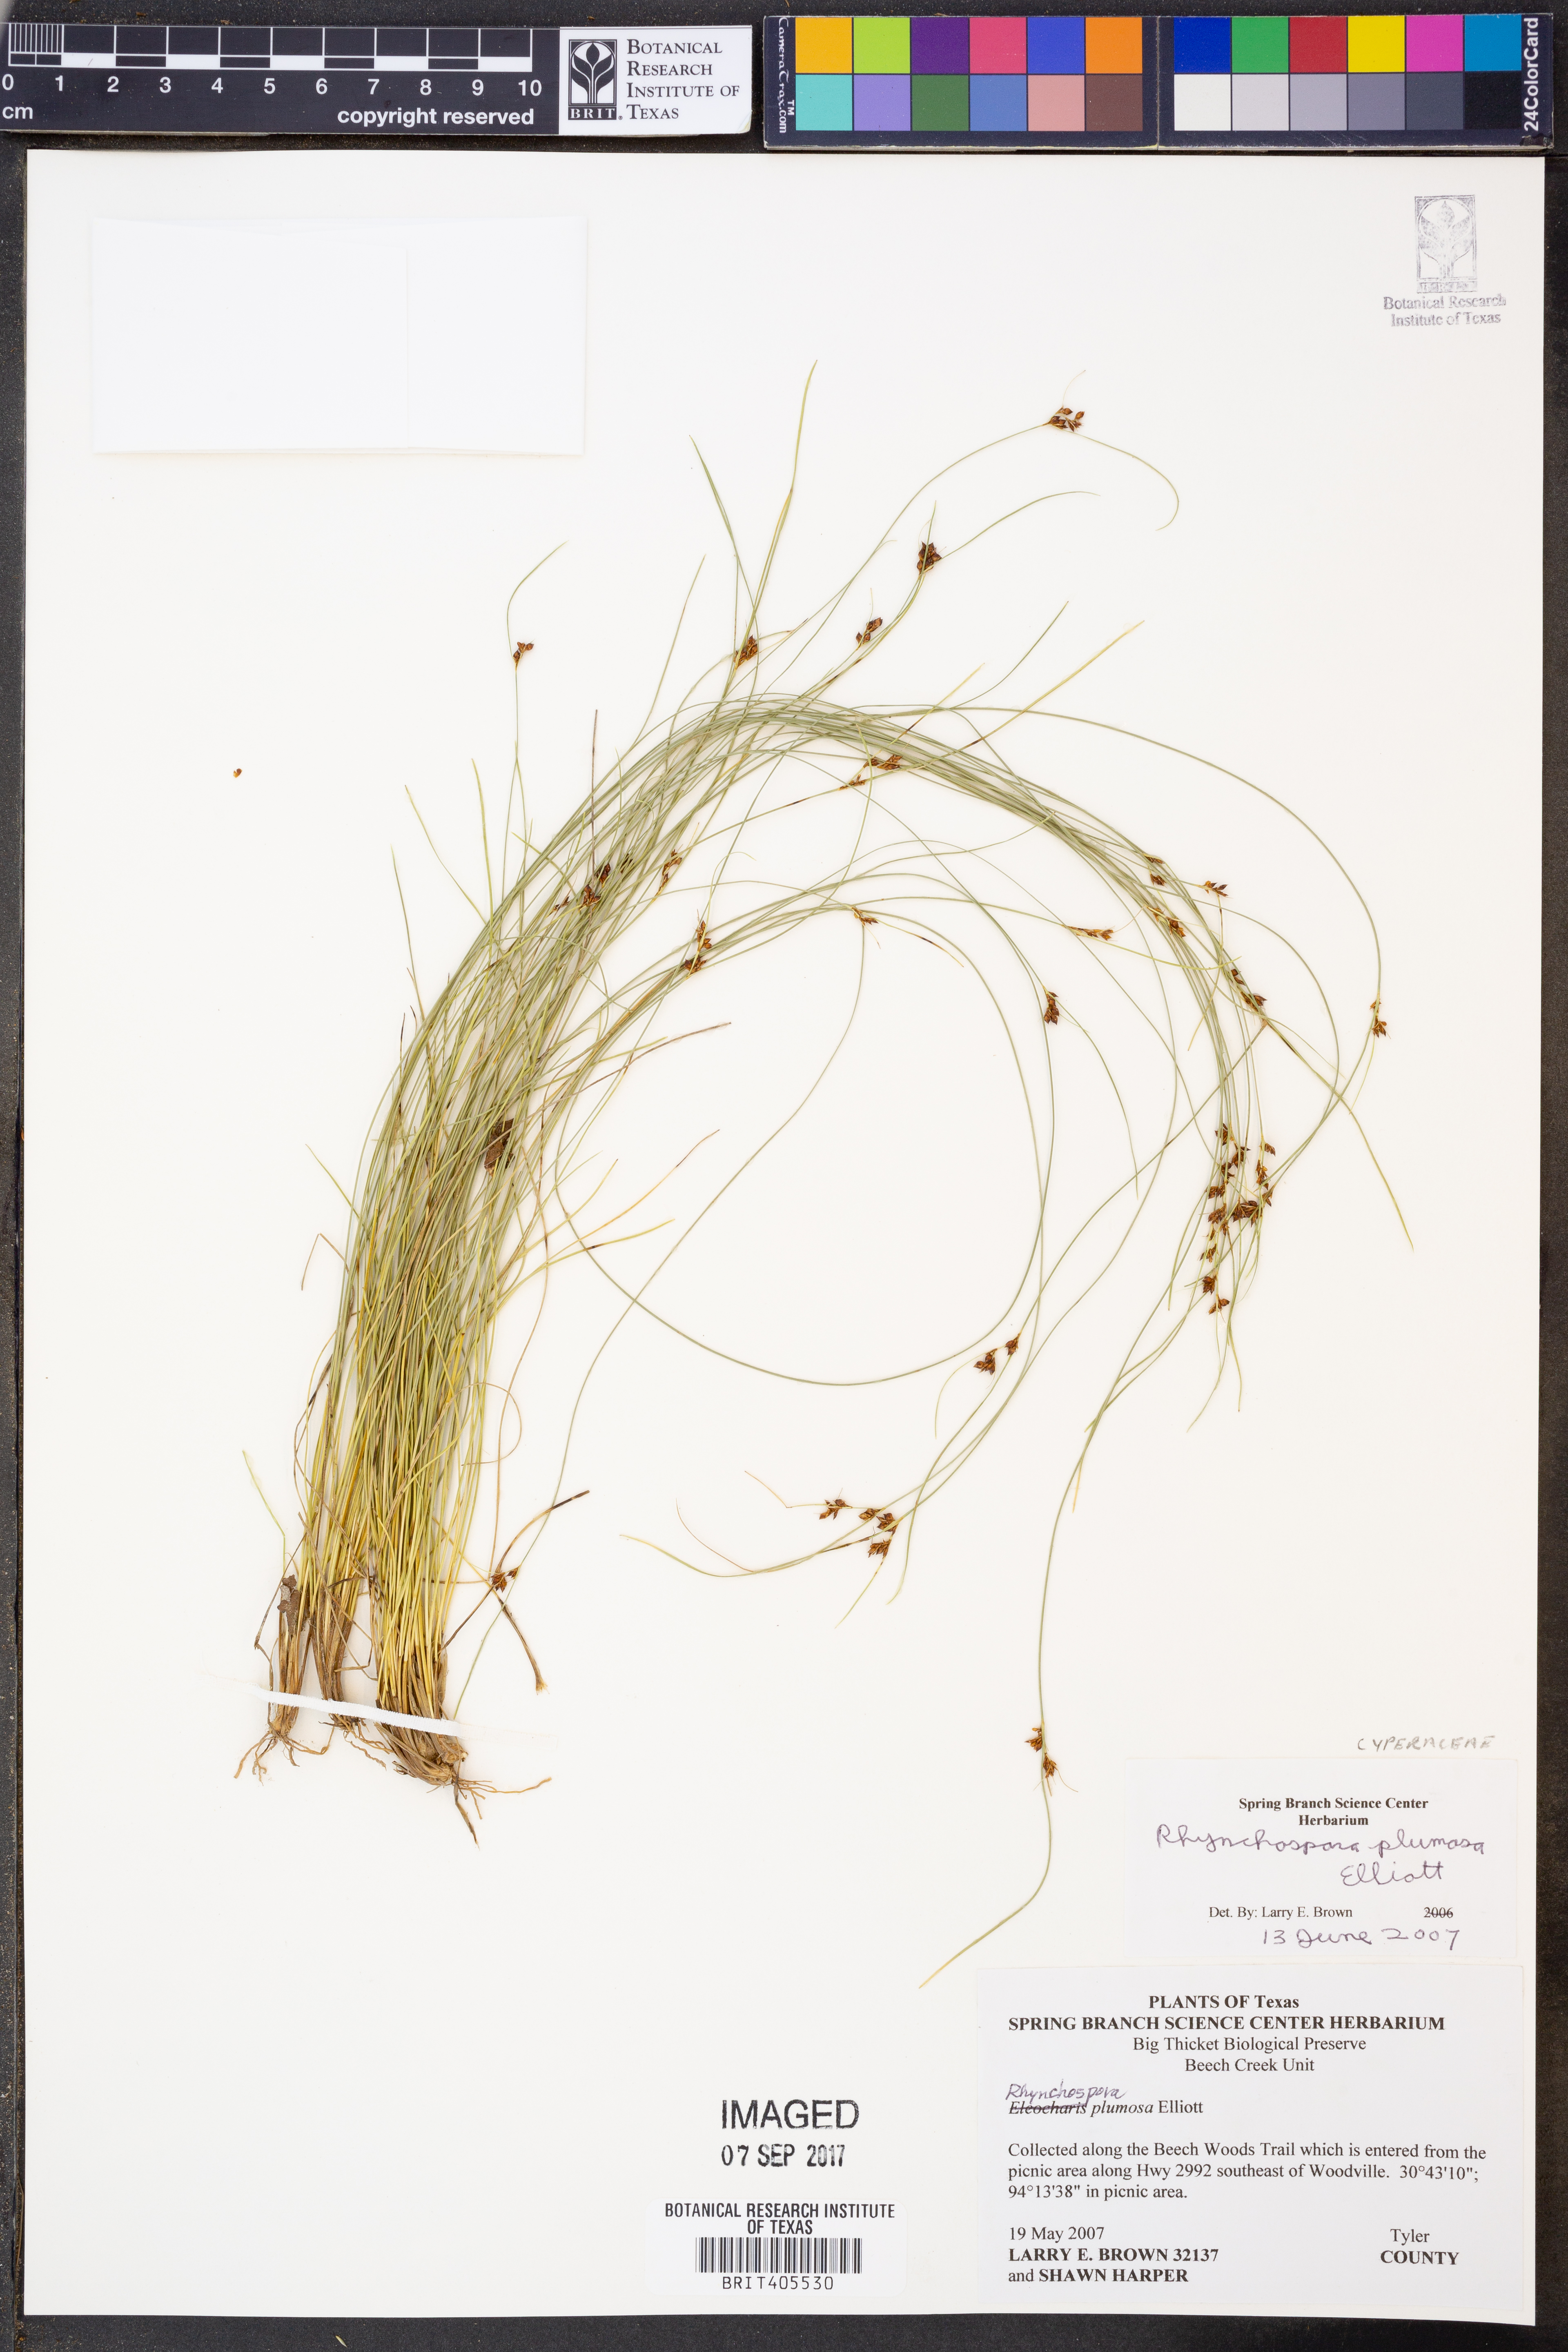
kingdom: Plantae
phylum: Tracheophyta
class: Liliopsida
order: Poales
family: Cyperaceae
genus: Rhynchospora
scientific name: Rhynchospora plumosa
